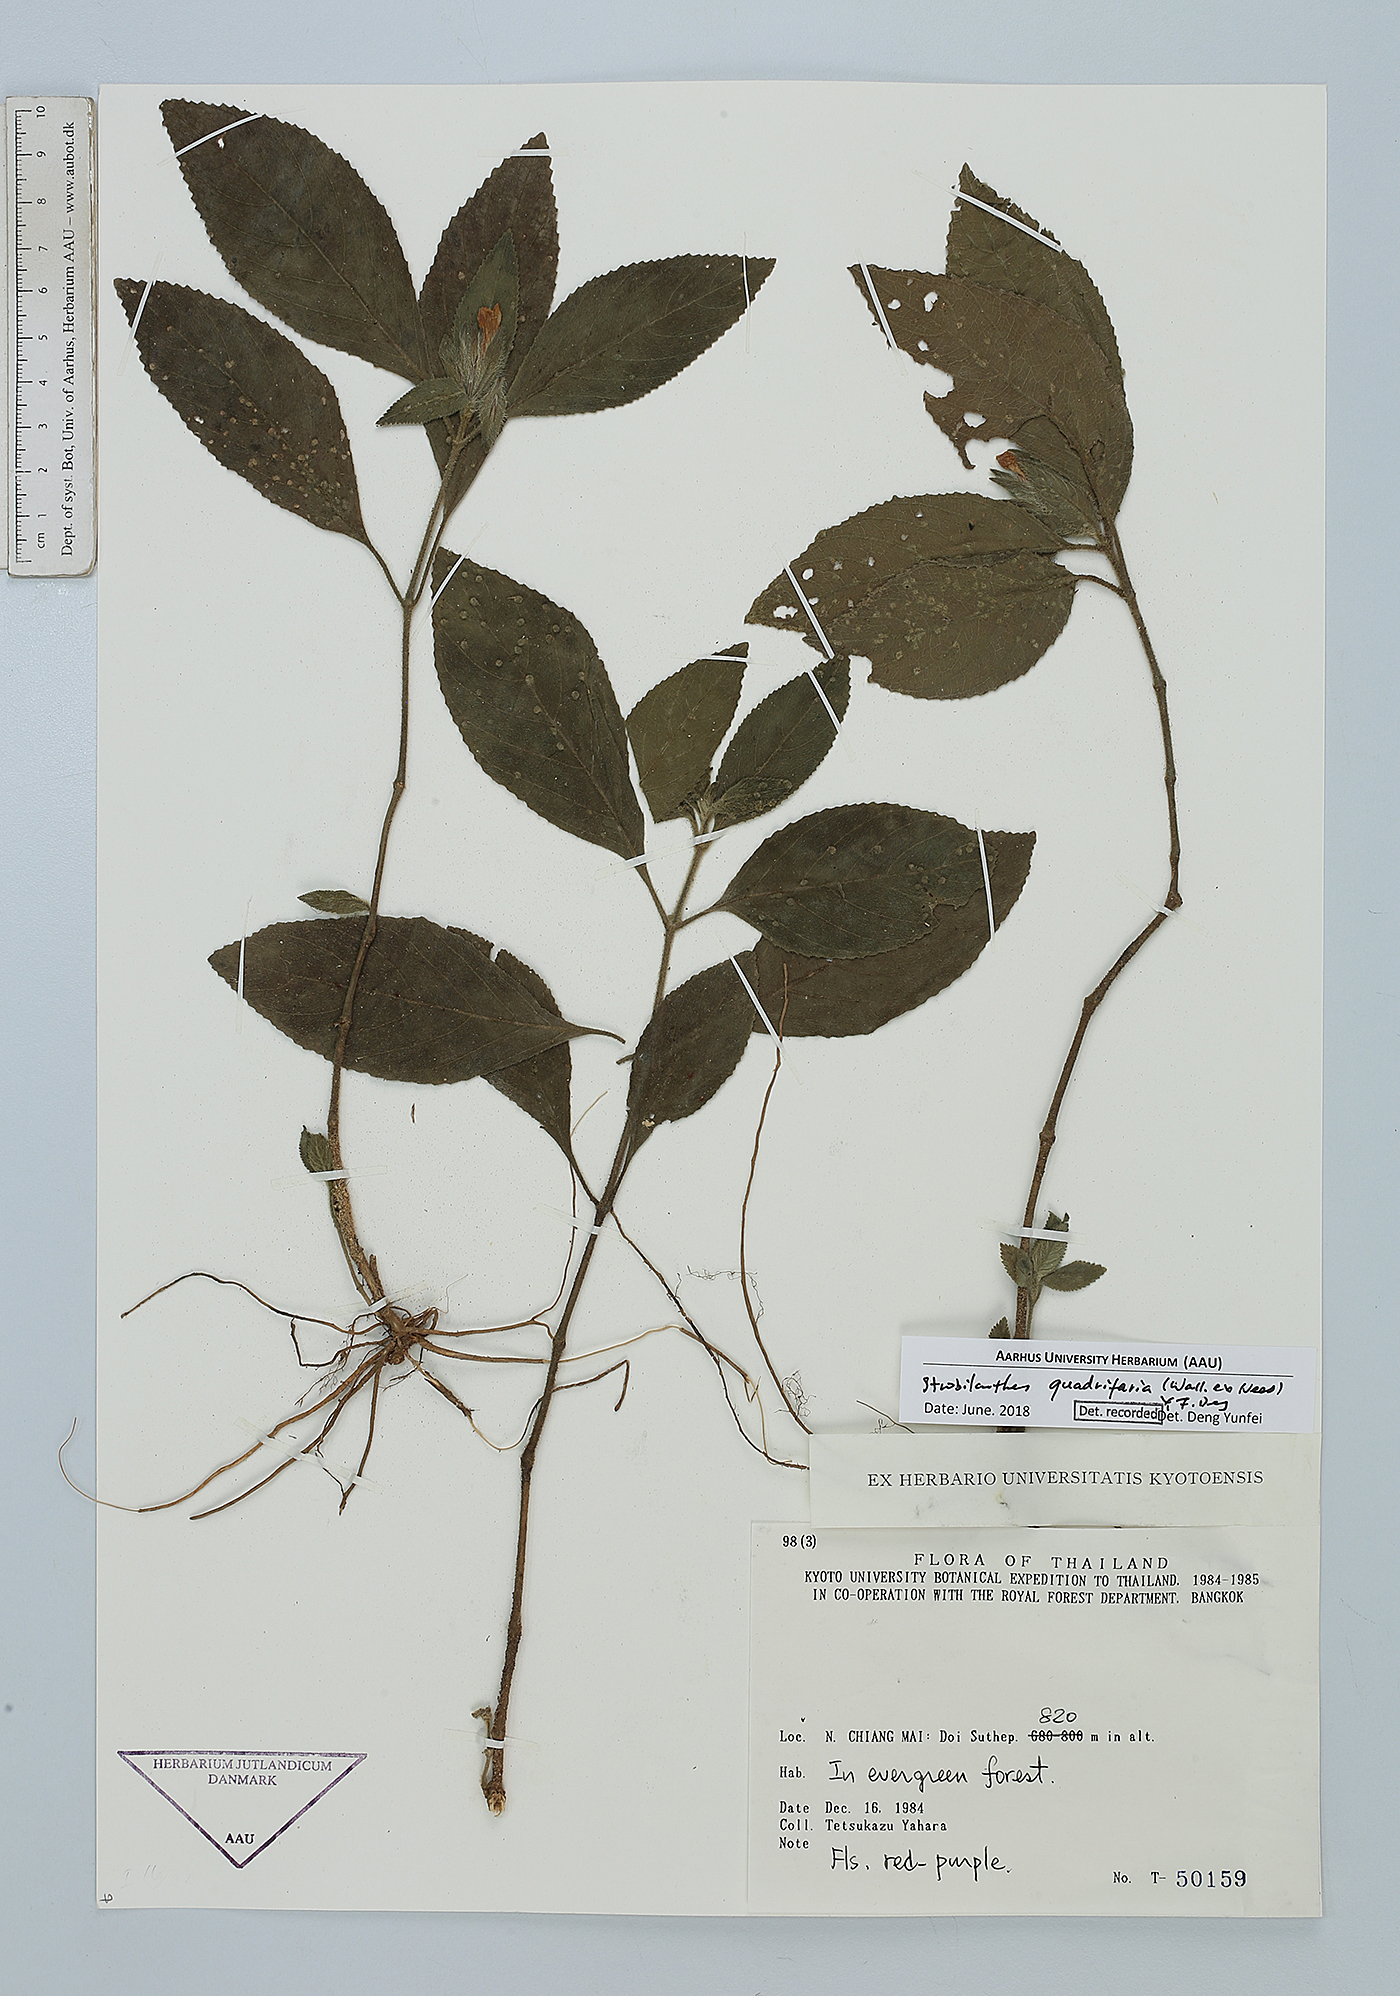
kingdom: Plantae
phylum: Tracheophyta
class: Magnoliopsida
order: Lamiales
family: Acanthaceae
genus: Strobilanthes
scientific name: Strobilanthes quadrifaria
